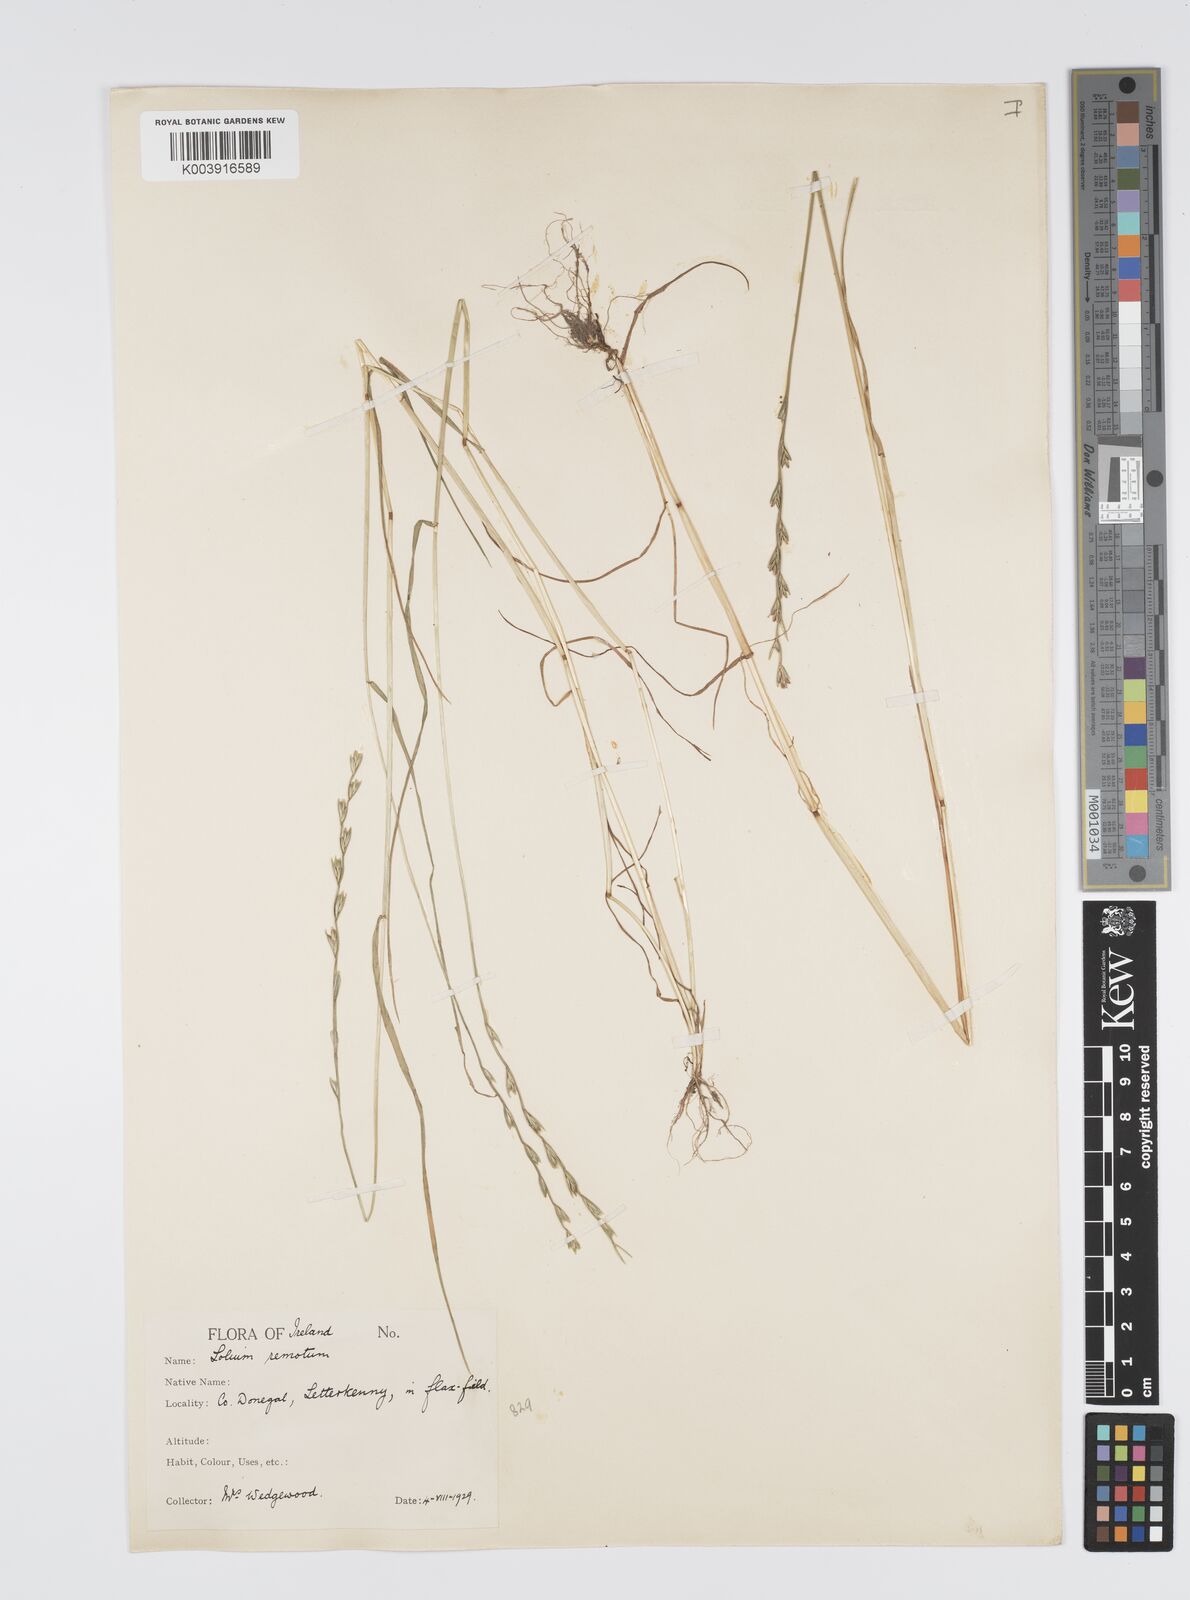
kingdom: Plantae
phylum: Tracheophyta
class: Liliopsida
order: Poales
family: Poaceae
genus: Lolium
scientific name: Lolium remotum
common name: Flaxfield rye-grass
